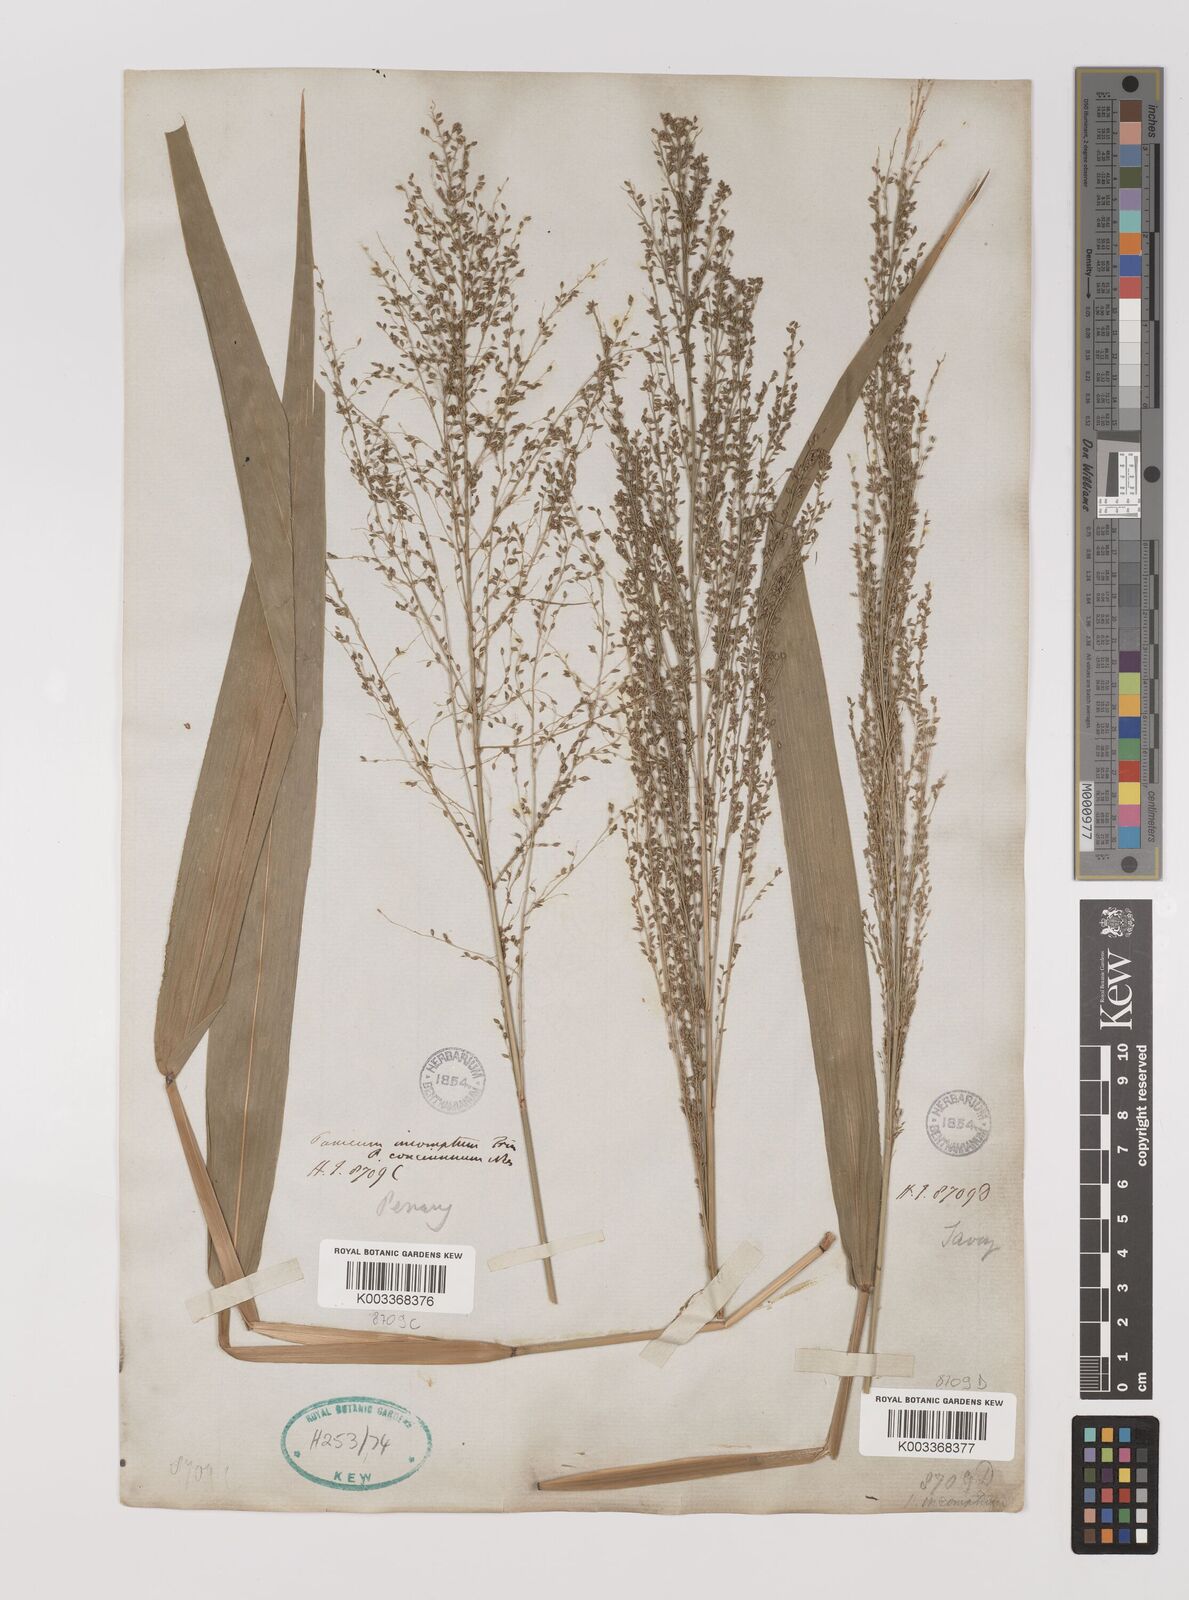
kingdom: Plantae
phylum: Tracheophyta
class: Liliopsida
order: Poales
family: Poaceae
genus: Panicum
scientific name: Panicum sarmentosum
